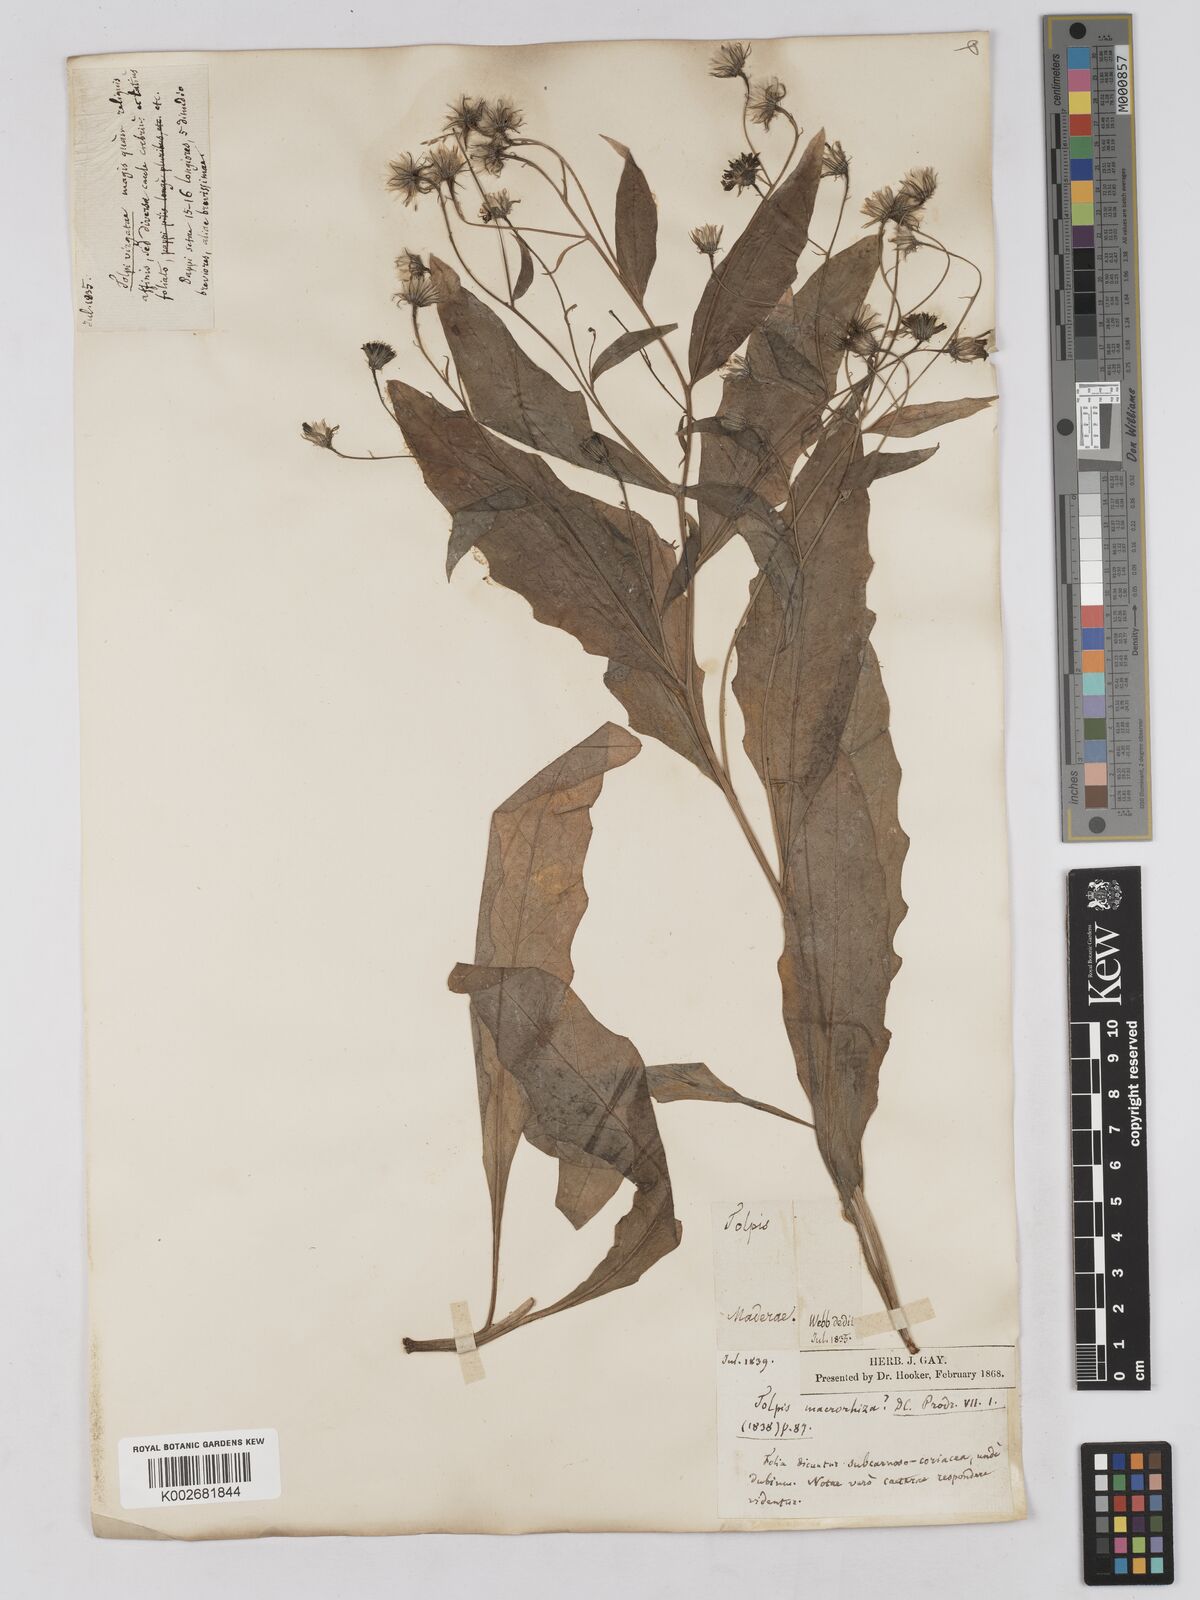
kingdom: Plantae
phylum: Tracheophyta
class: Magnoliopsida
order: Asterales
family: Asteraceae
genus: Tolpis
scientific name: Tolpis macrorhiza
